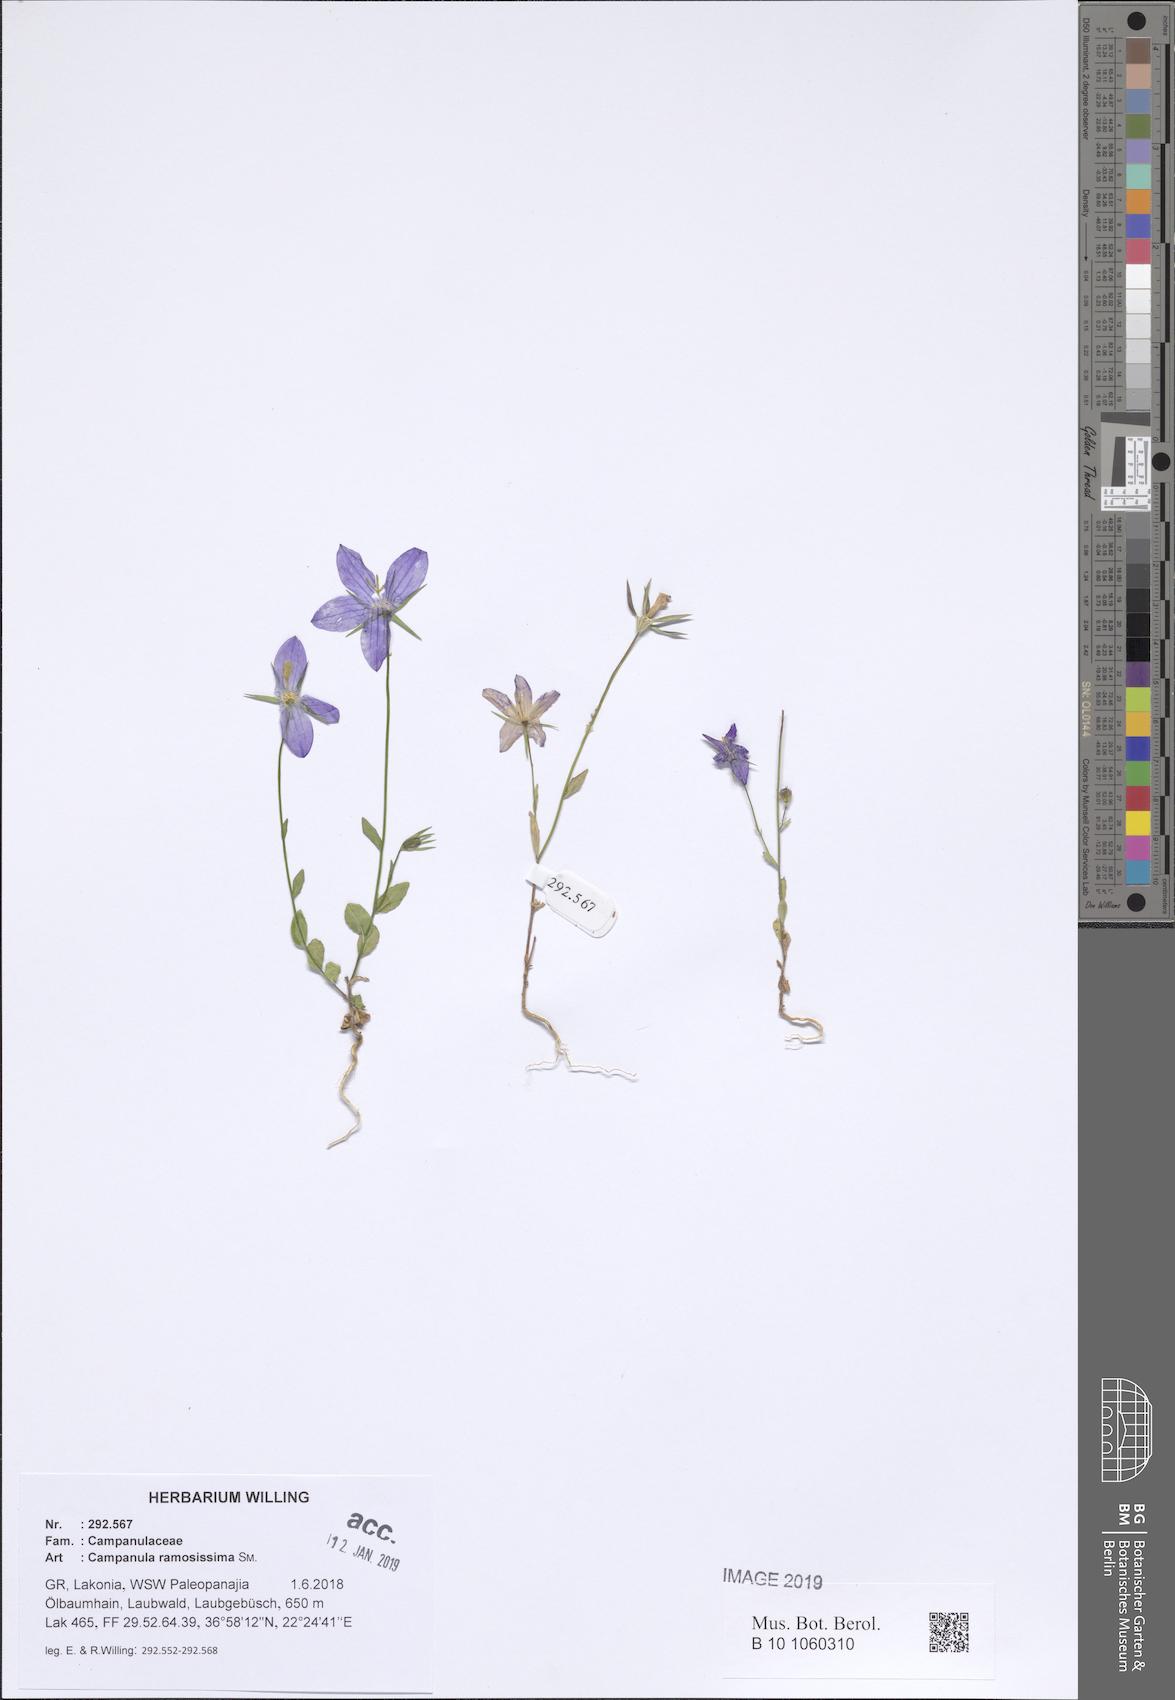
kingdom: Plantae
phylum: Tracheophyta
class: Magnoliopsida
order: Asterales
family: Campanulaceae
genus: Campanula
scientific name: Campanula ramosissima
